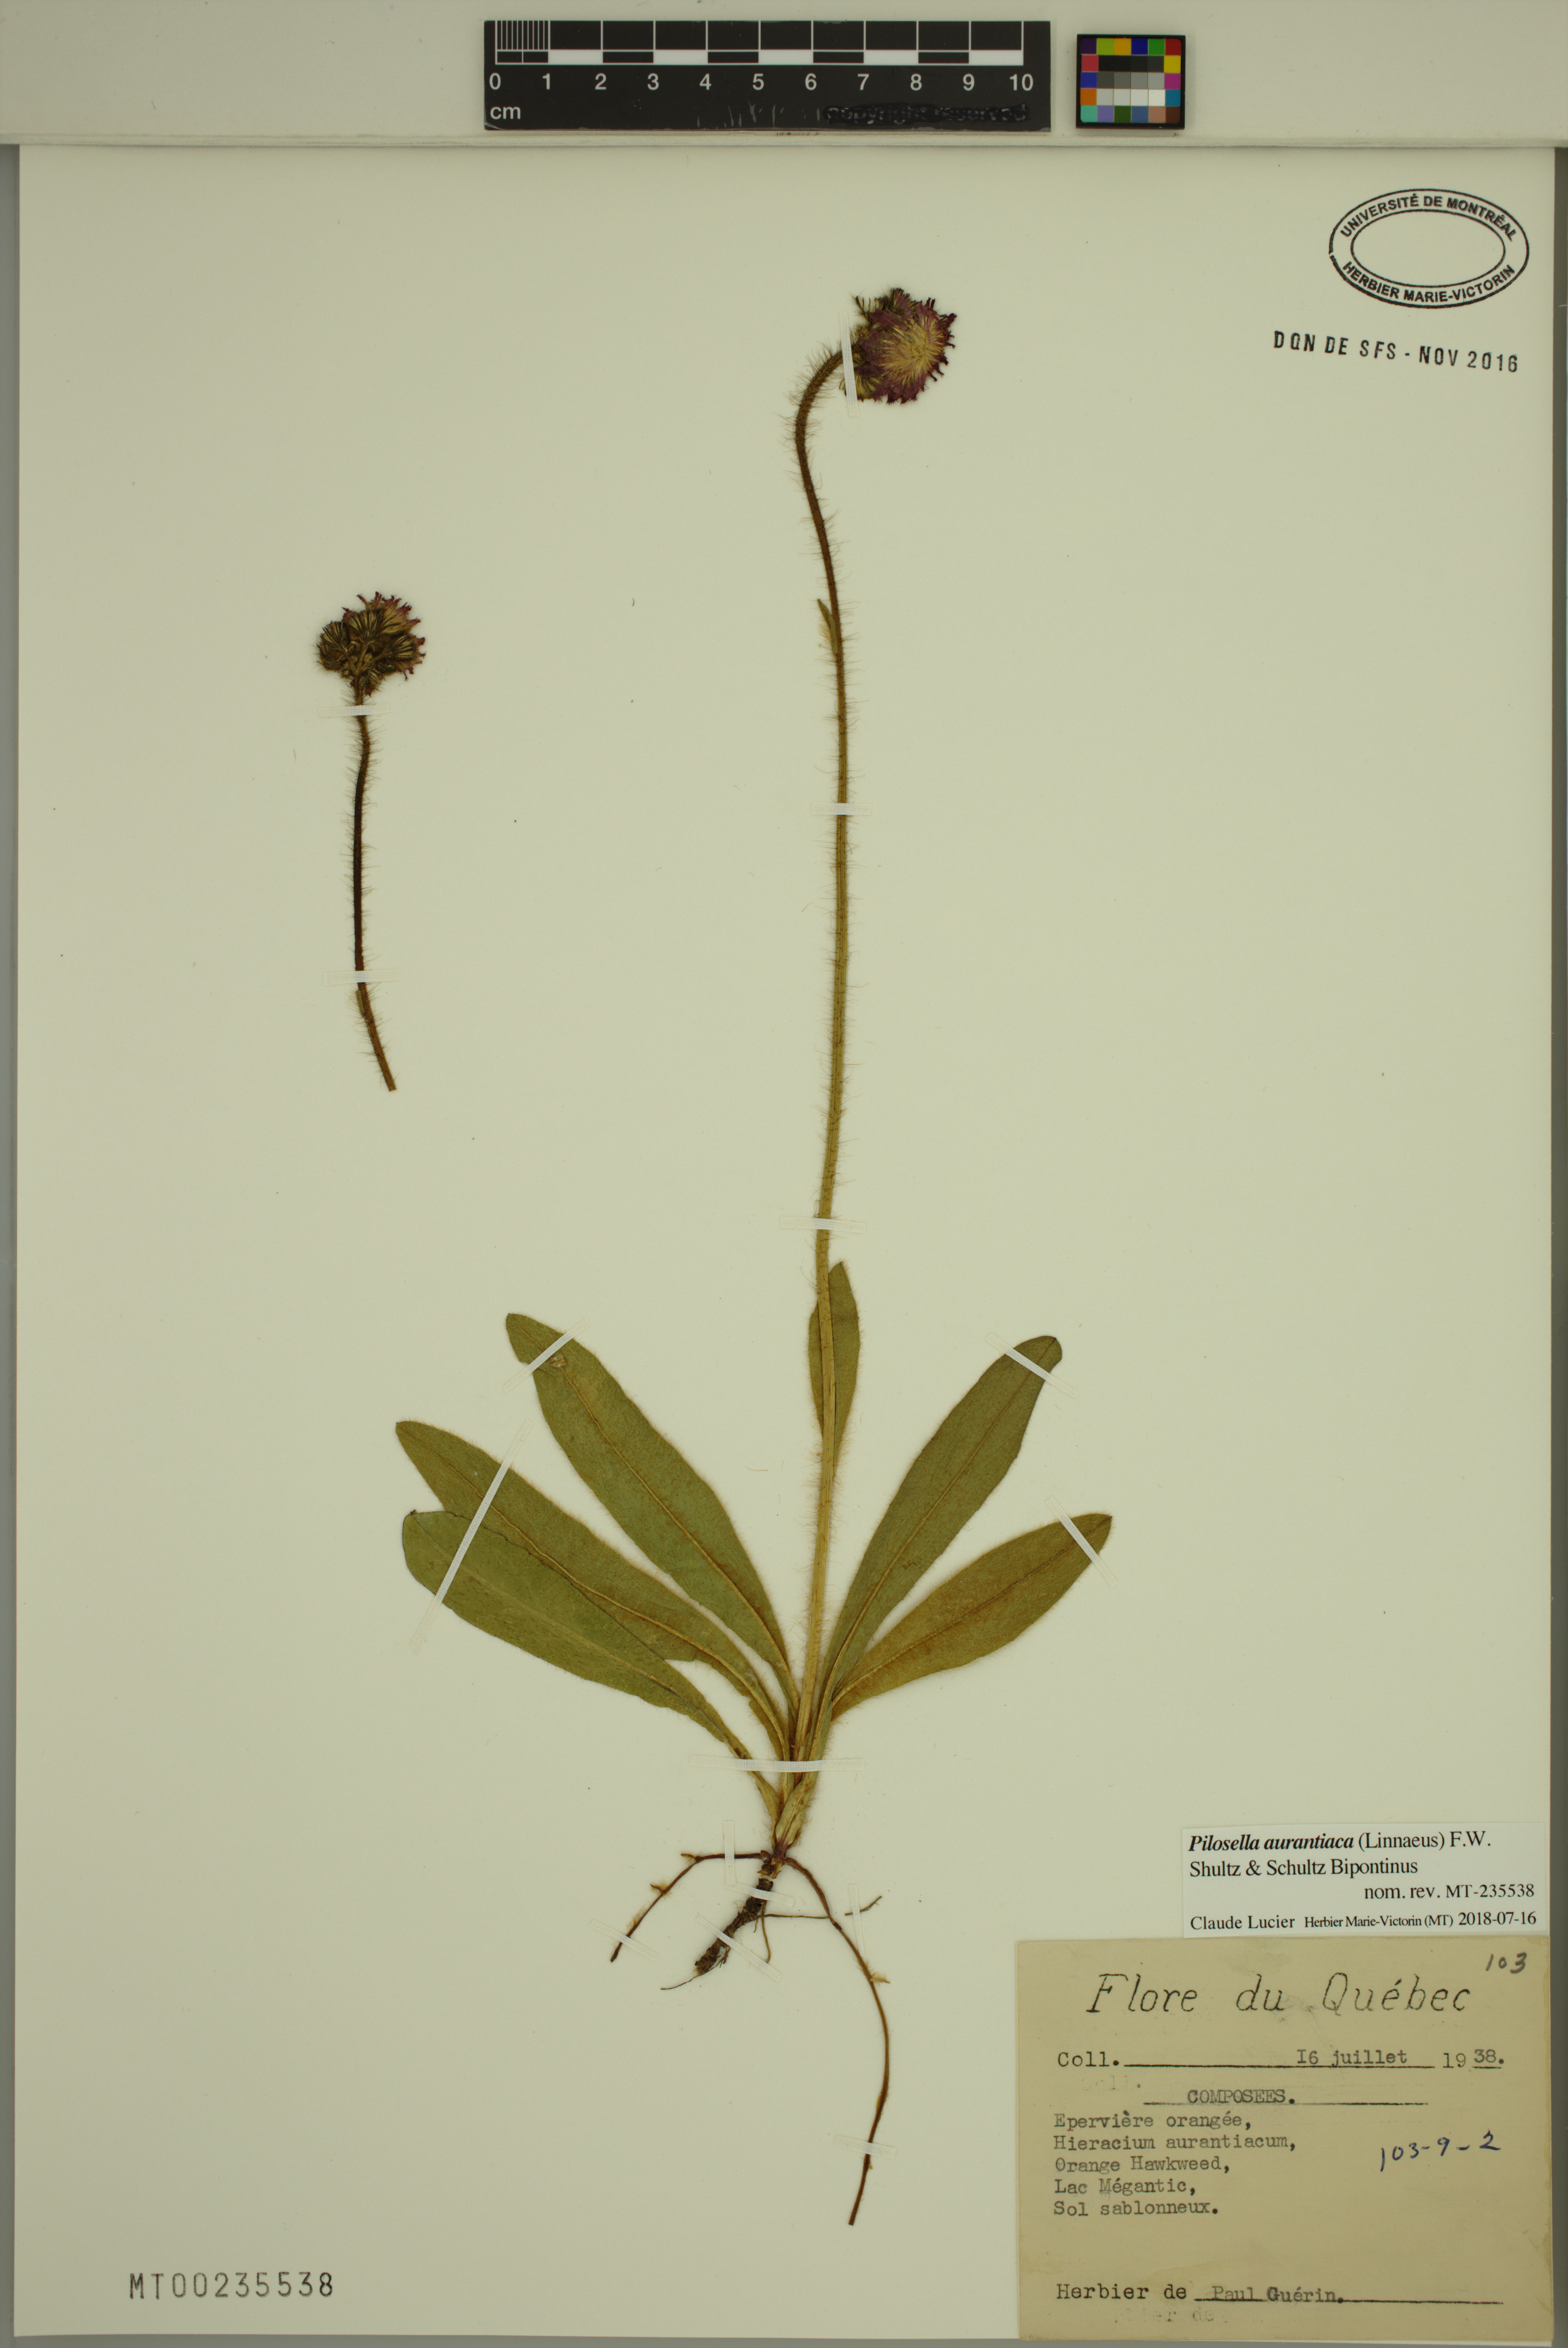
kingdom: Plantae
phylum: Tracheophyta
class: Magnoliopsida
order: Asterales
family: Asteraceae
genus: Pilosella
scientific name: Pilosella aurantiaca
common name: Fox-and-cubs
